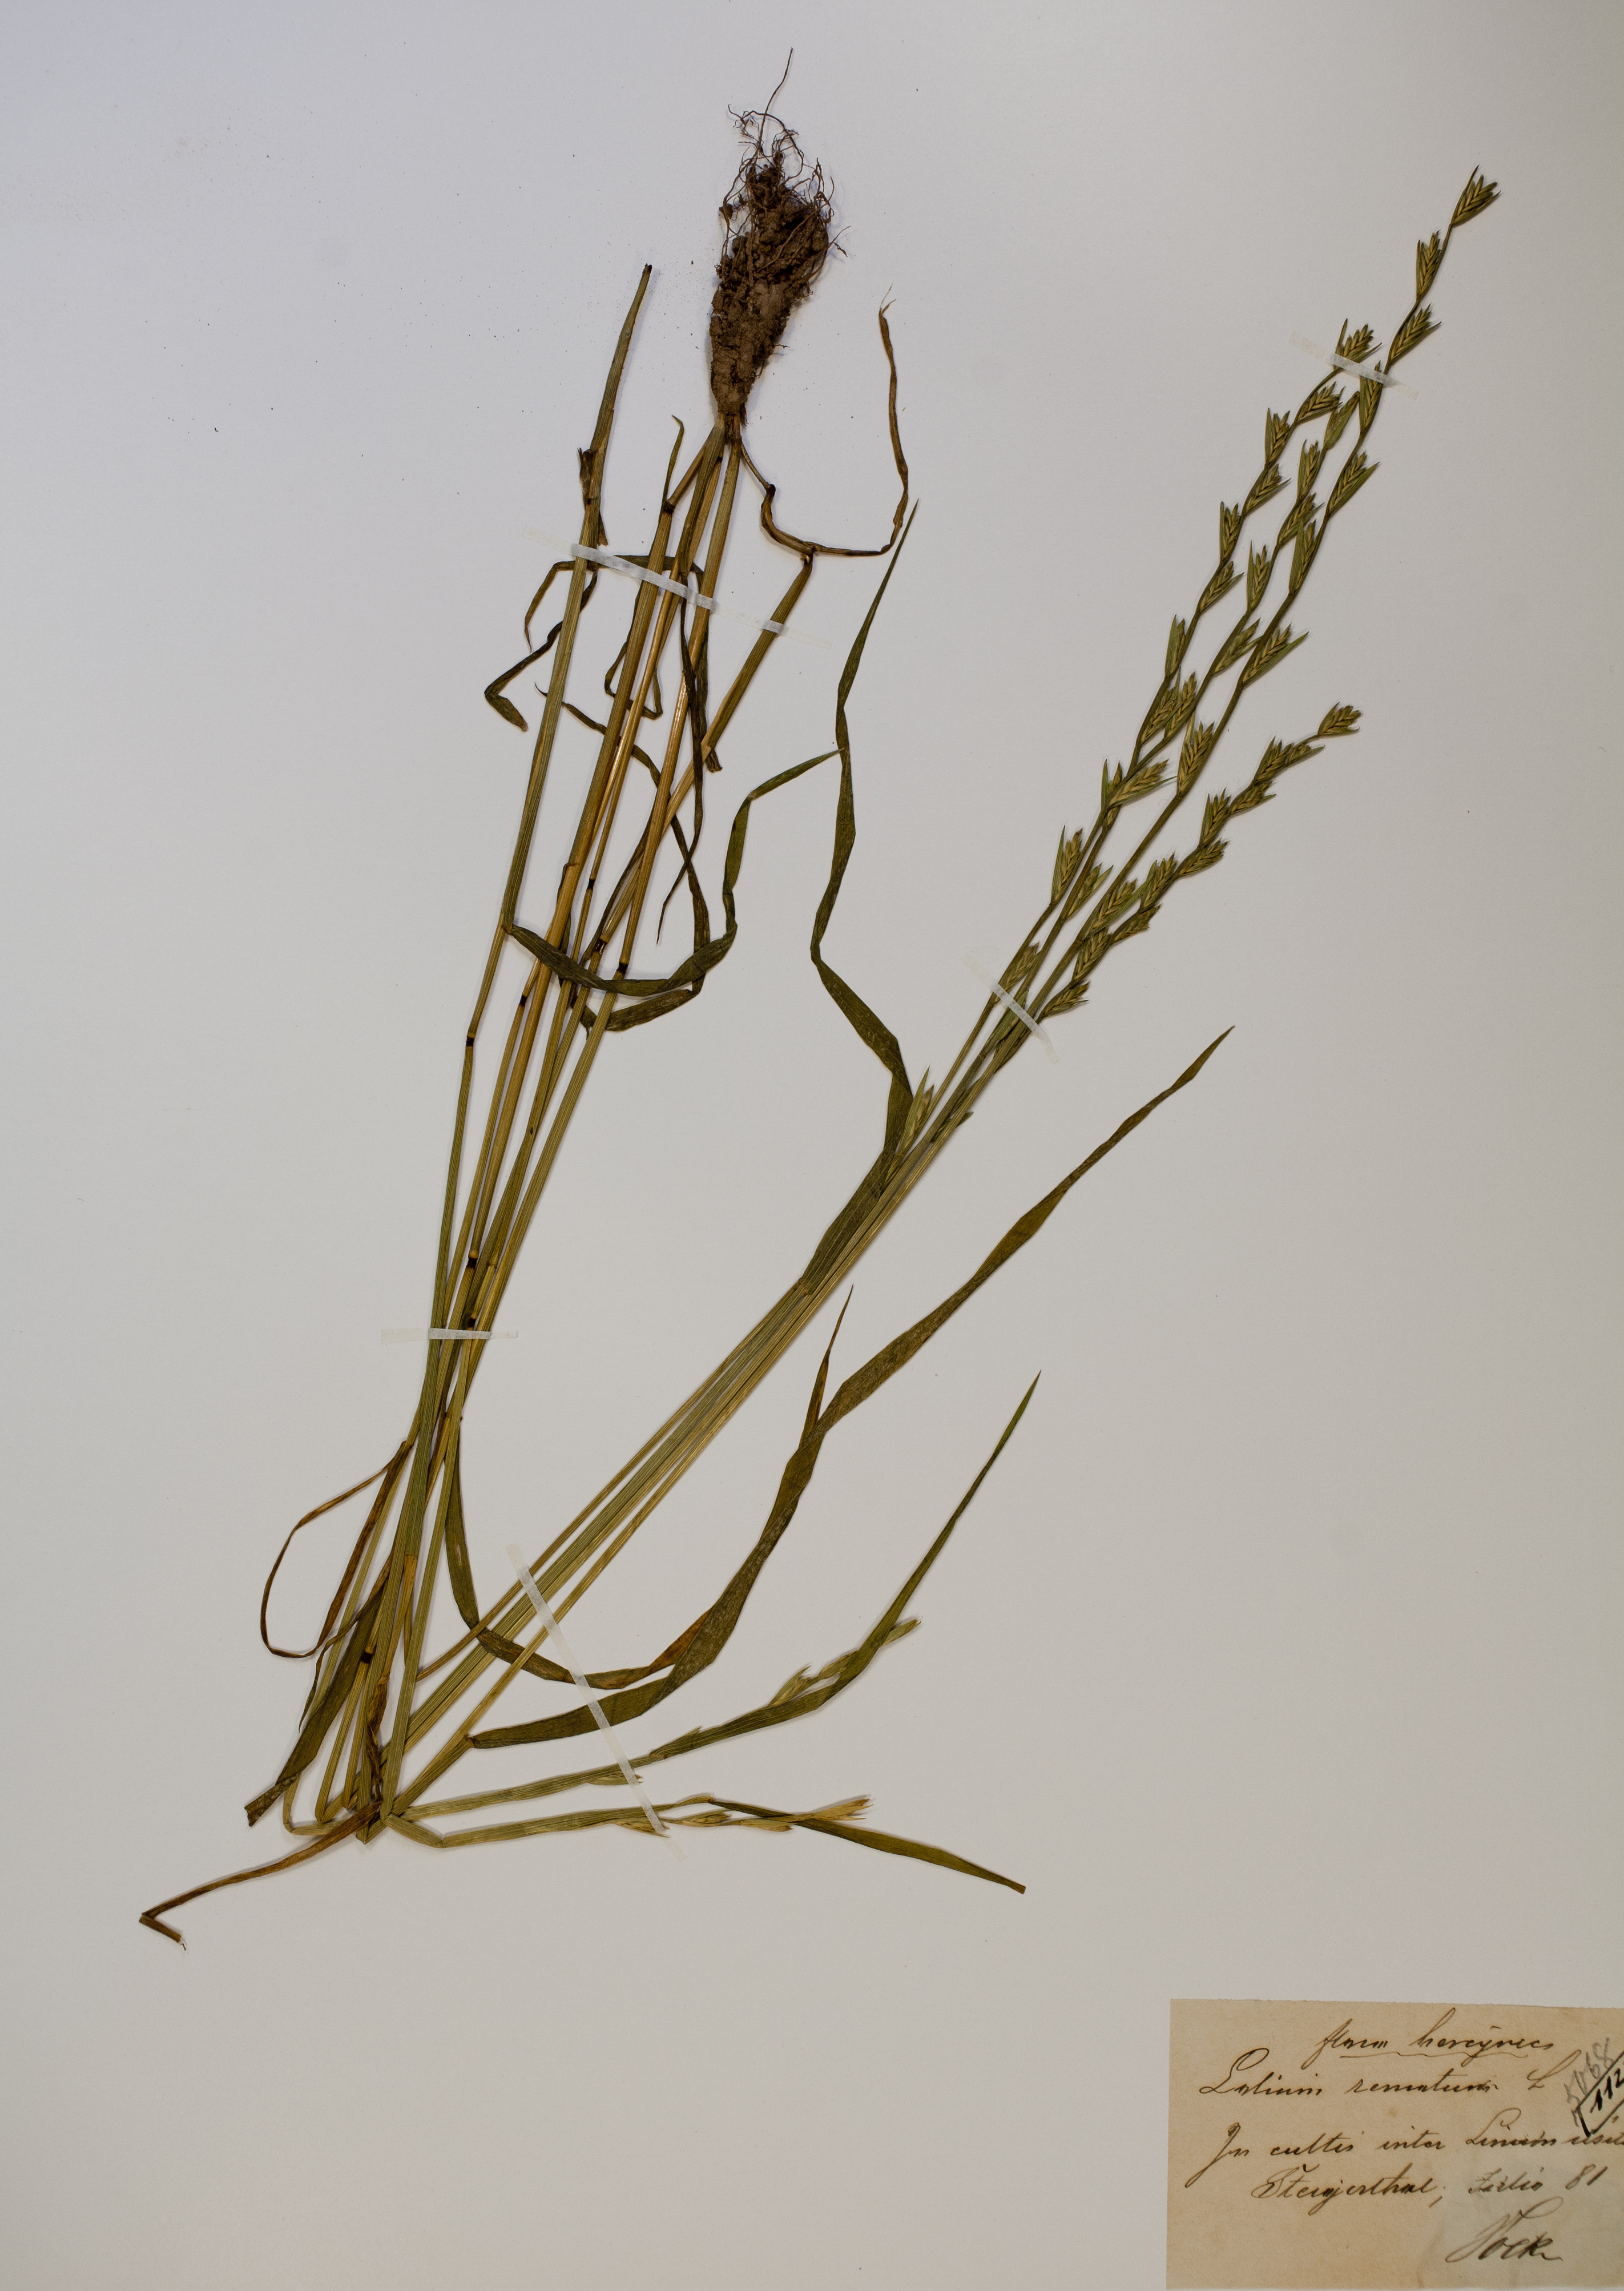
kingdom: Plantae
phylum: Tracheophyta
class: Liliopsida
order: Poales
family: Poaceae
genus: Lolium
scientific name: Lolium remotum
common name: Flaxfield rye-grass
